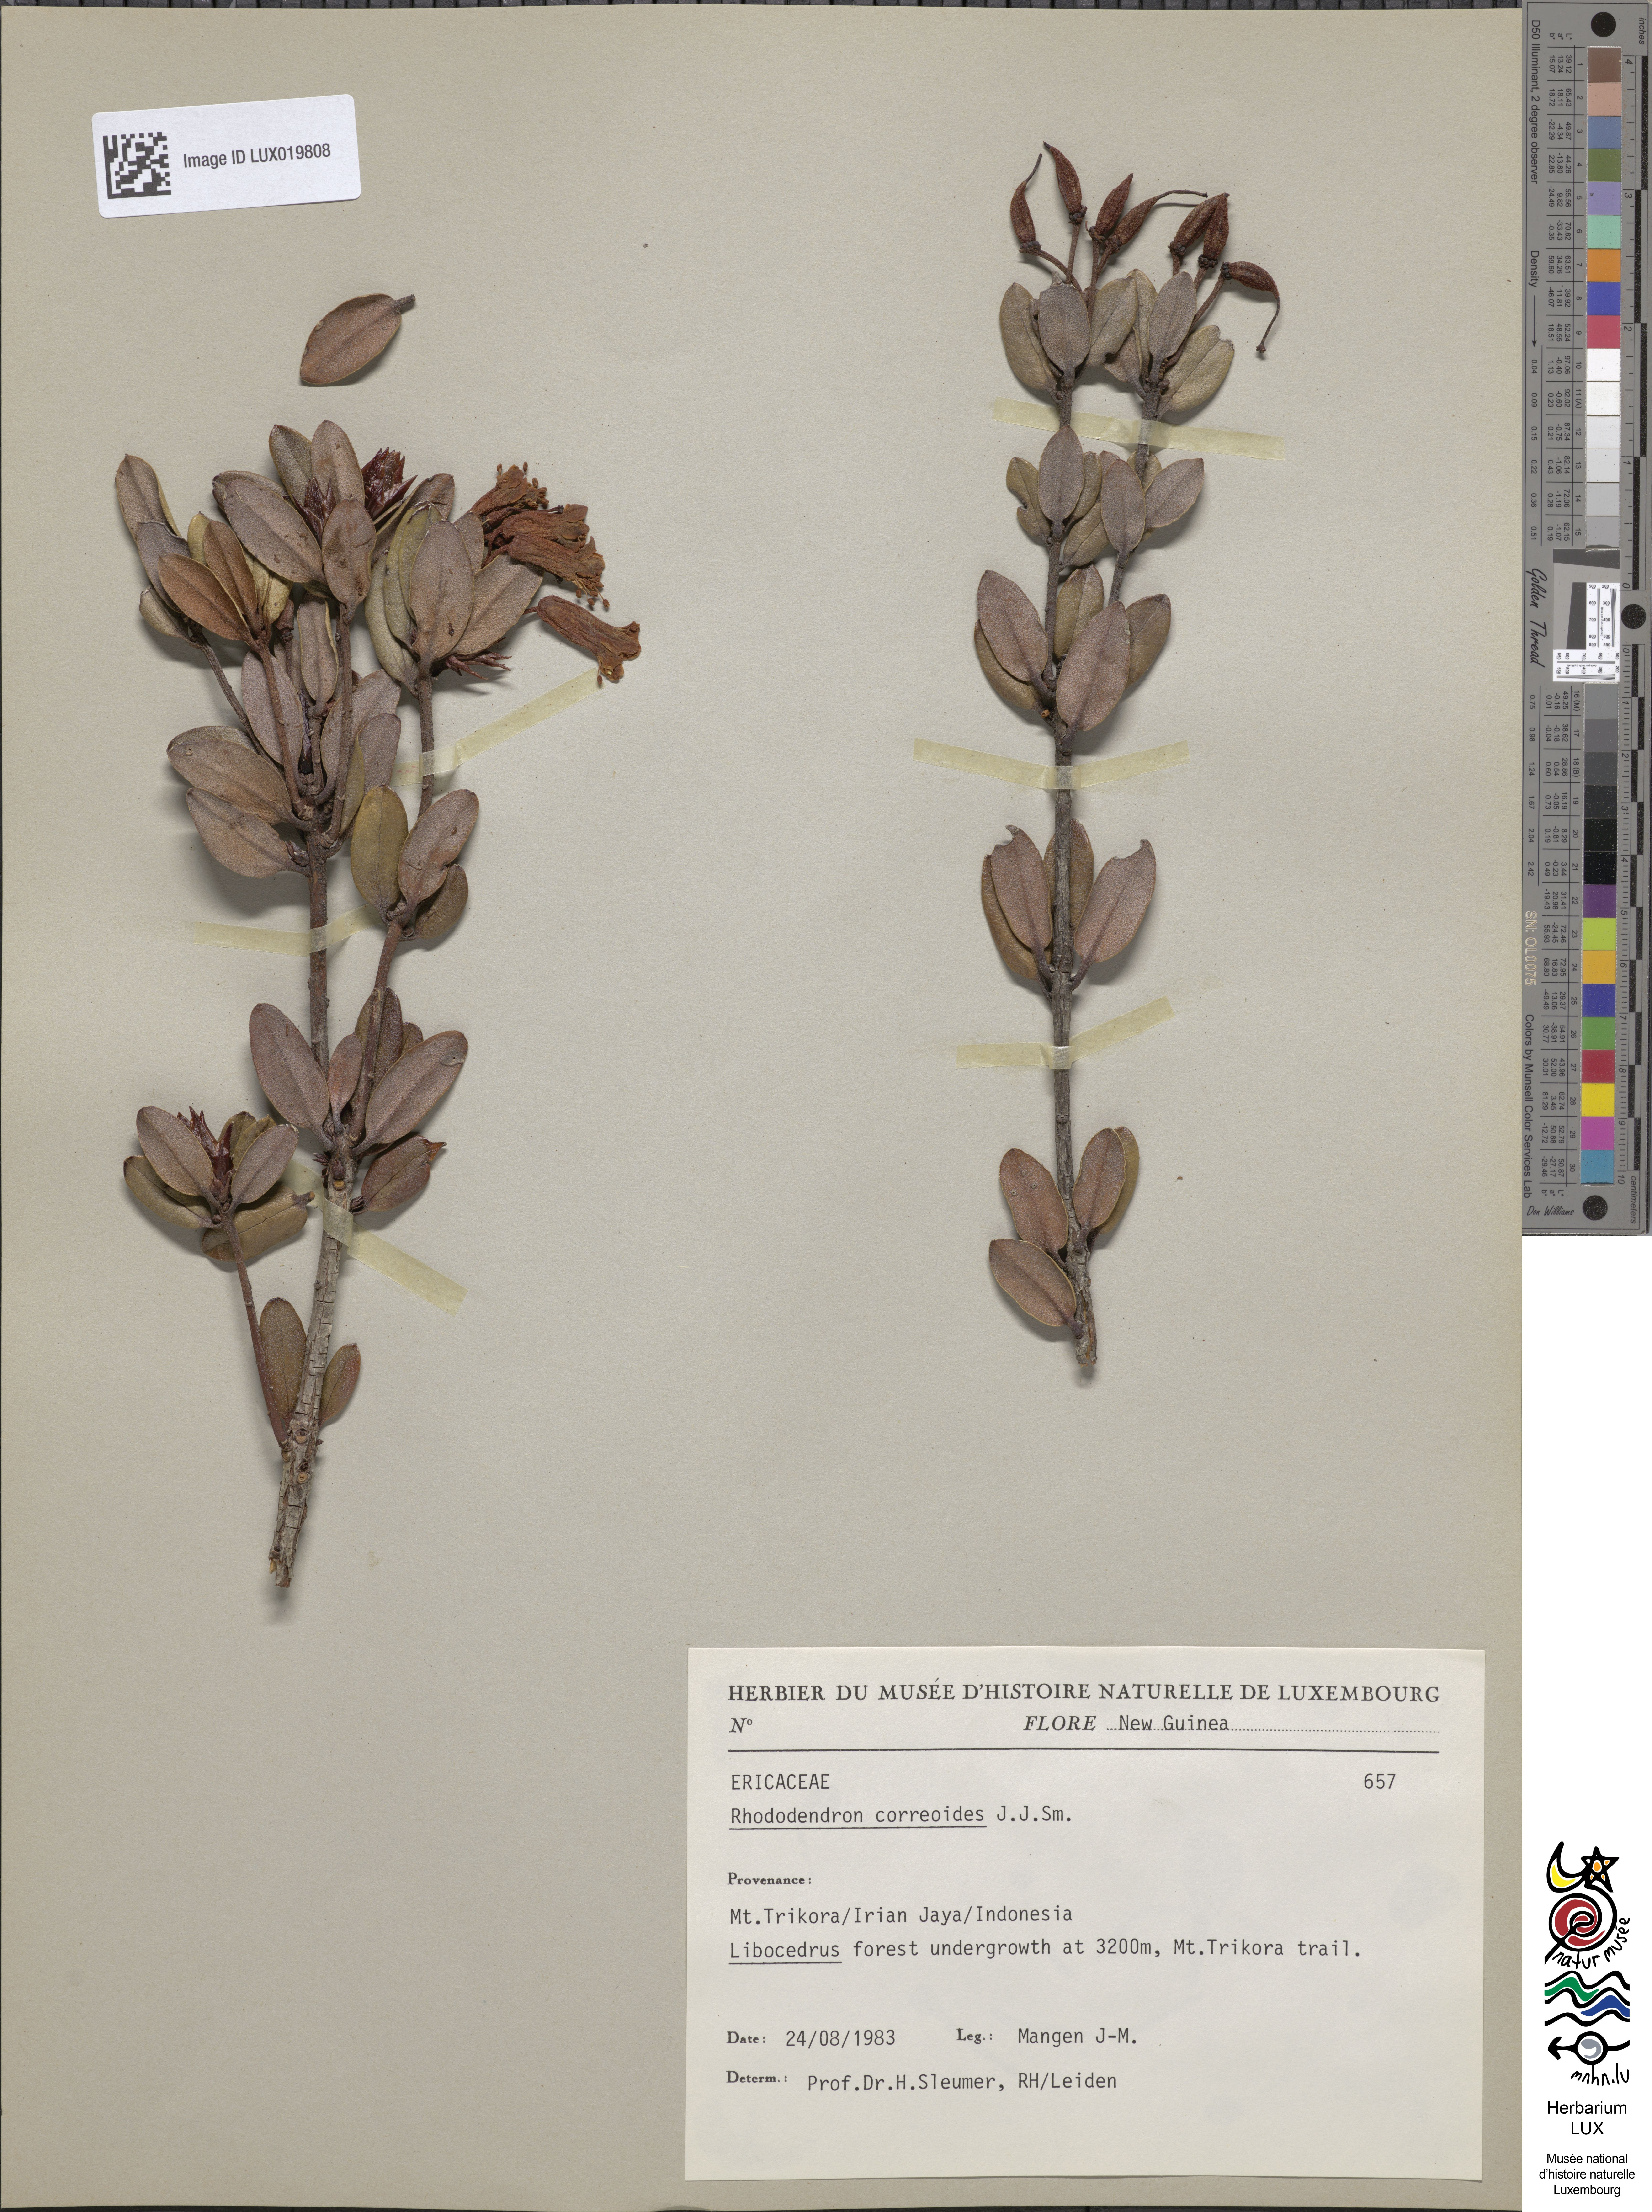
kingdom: Plantae
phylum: Tracheophyta
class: Magnoliopsida
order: Ericales
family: Ericaceae
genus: Rhododendron
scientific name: Rhododendron correoides
